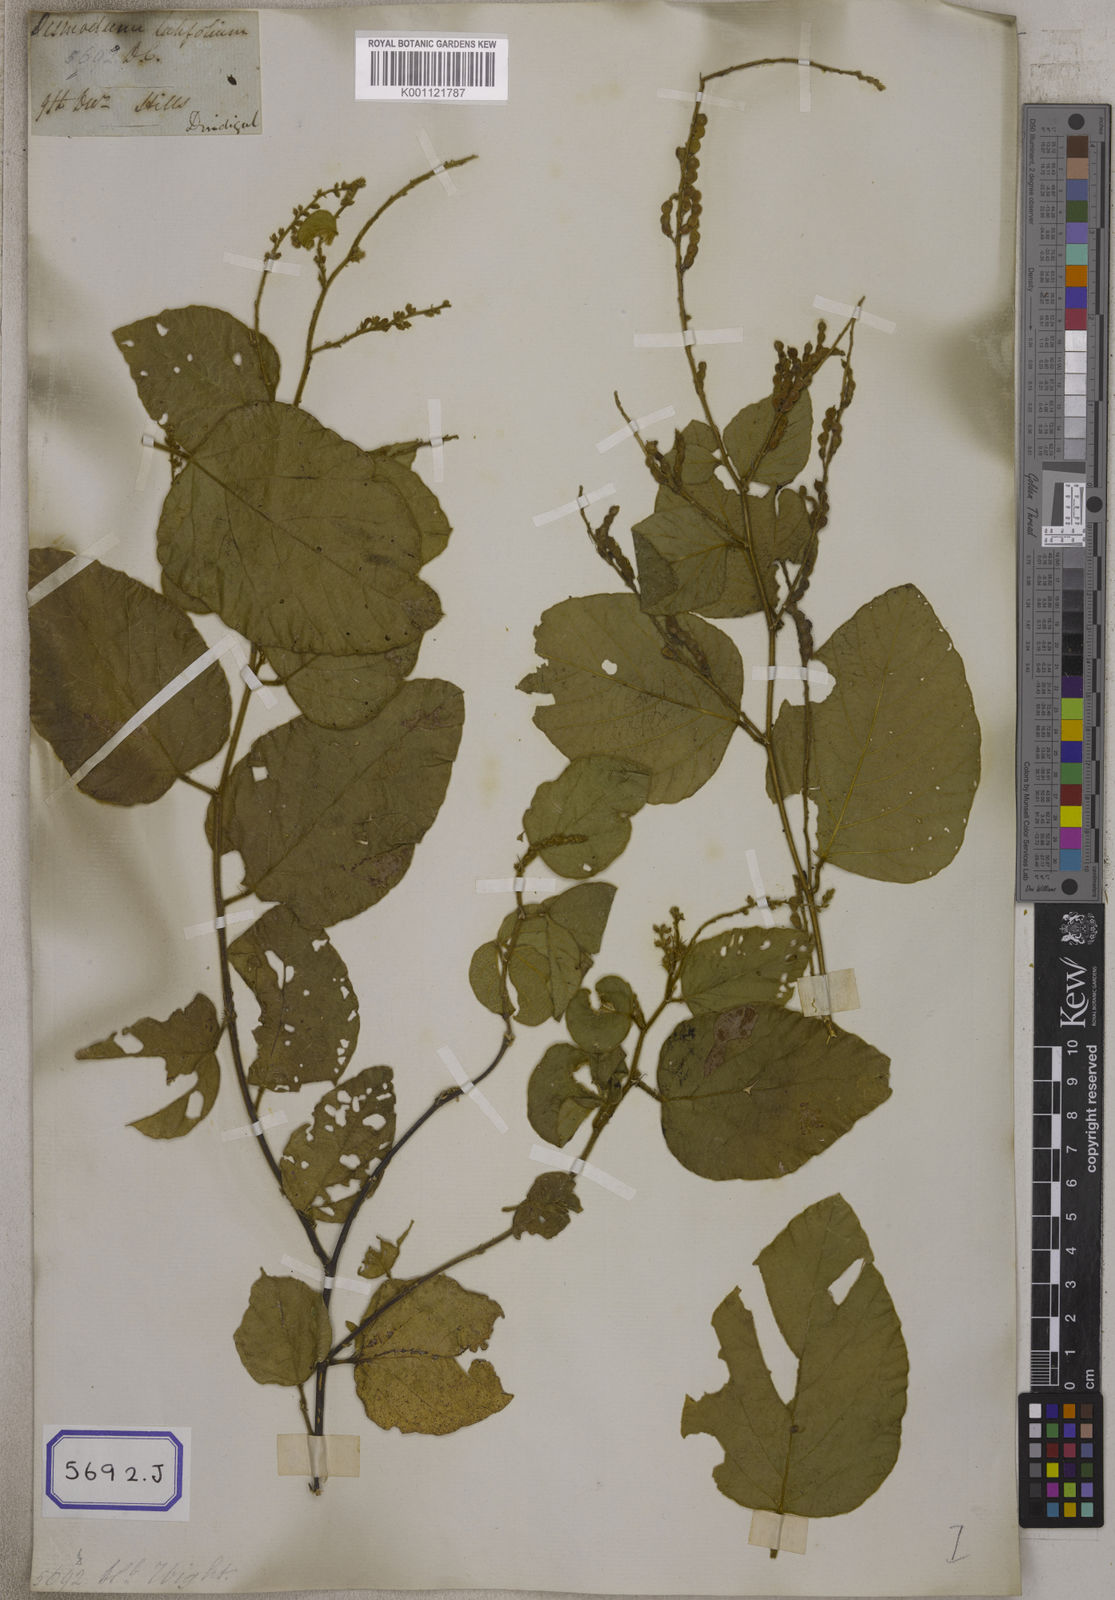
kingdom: Plantae
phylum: Tracheophyta
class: Magnoliopsida
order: Fabales
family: Fabaceae
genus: Polhillides
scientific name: Polhillides velutina
